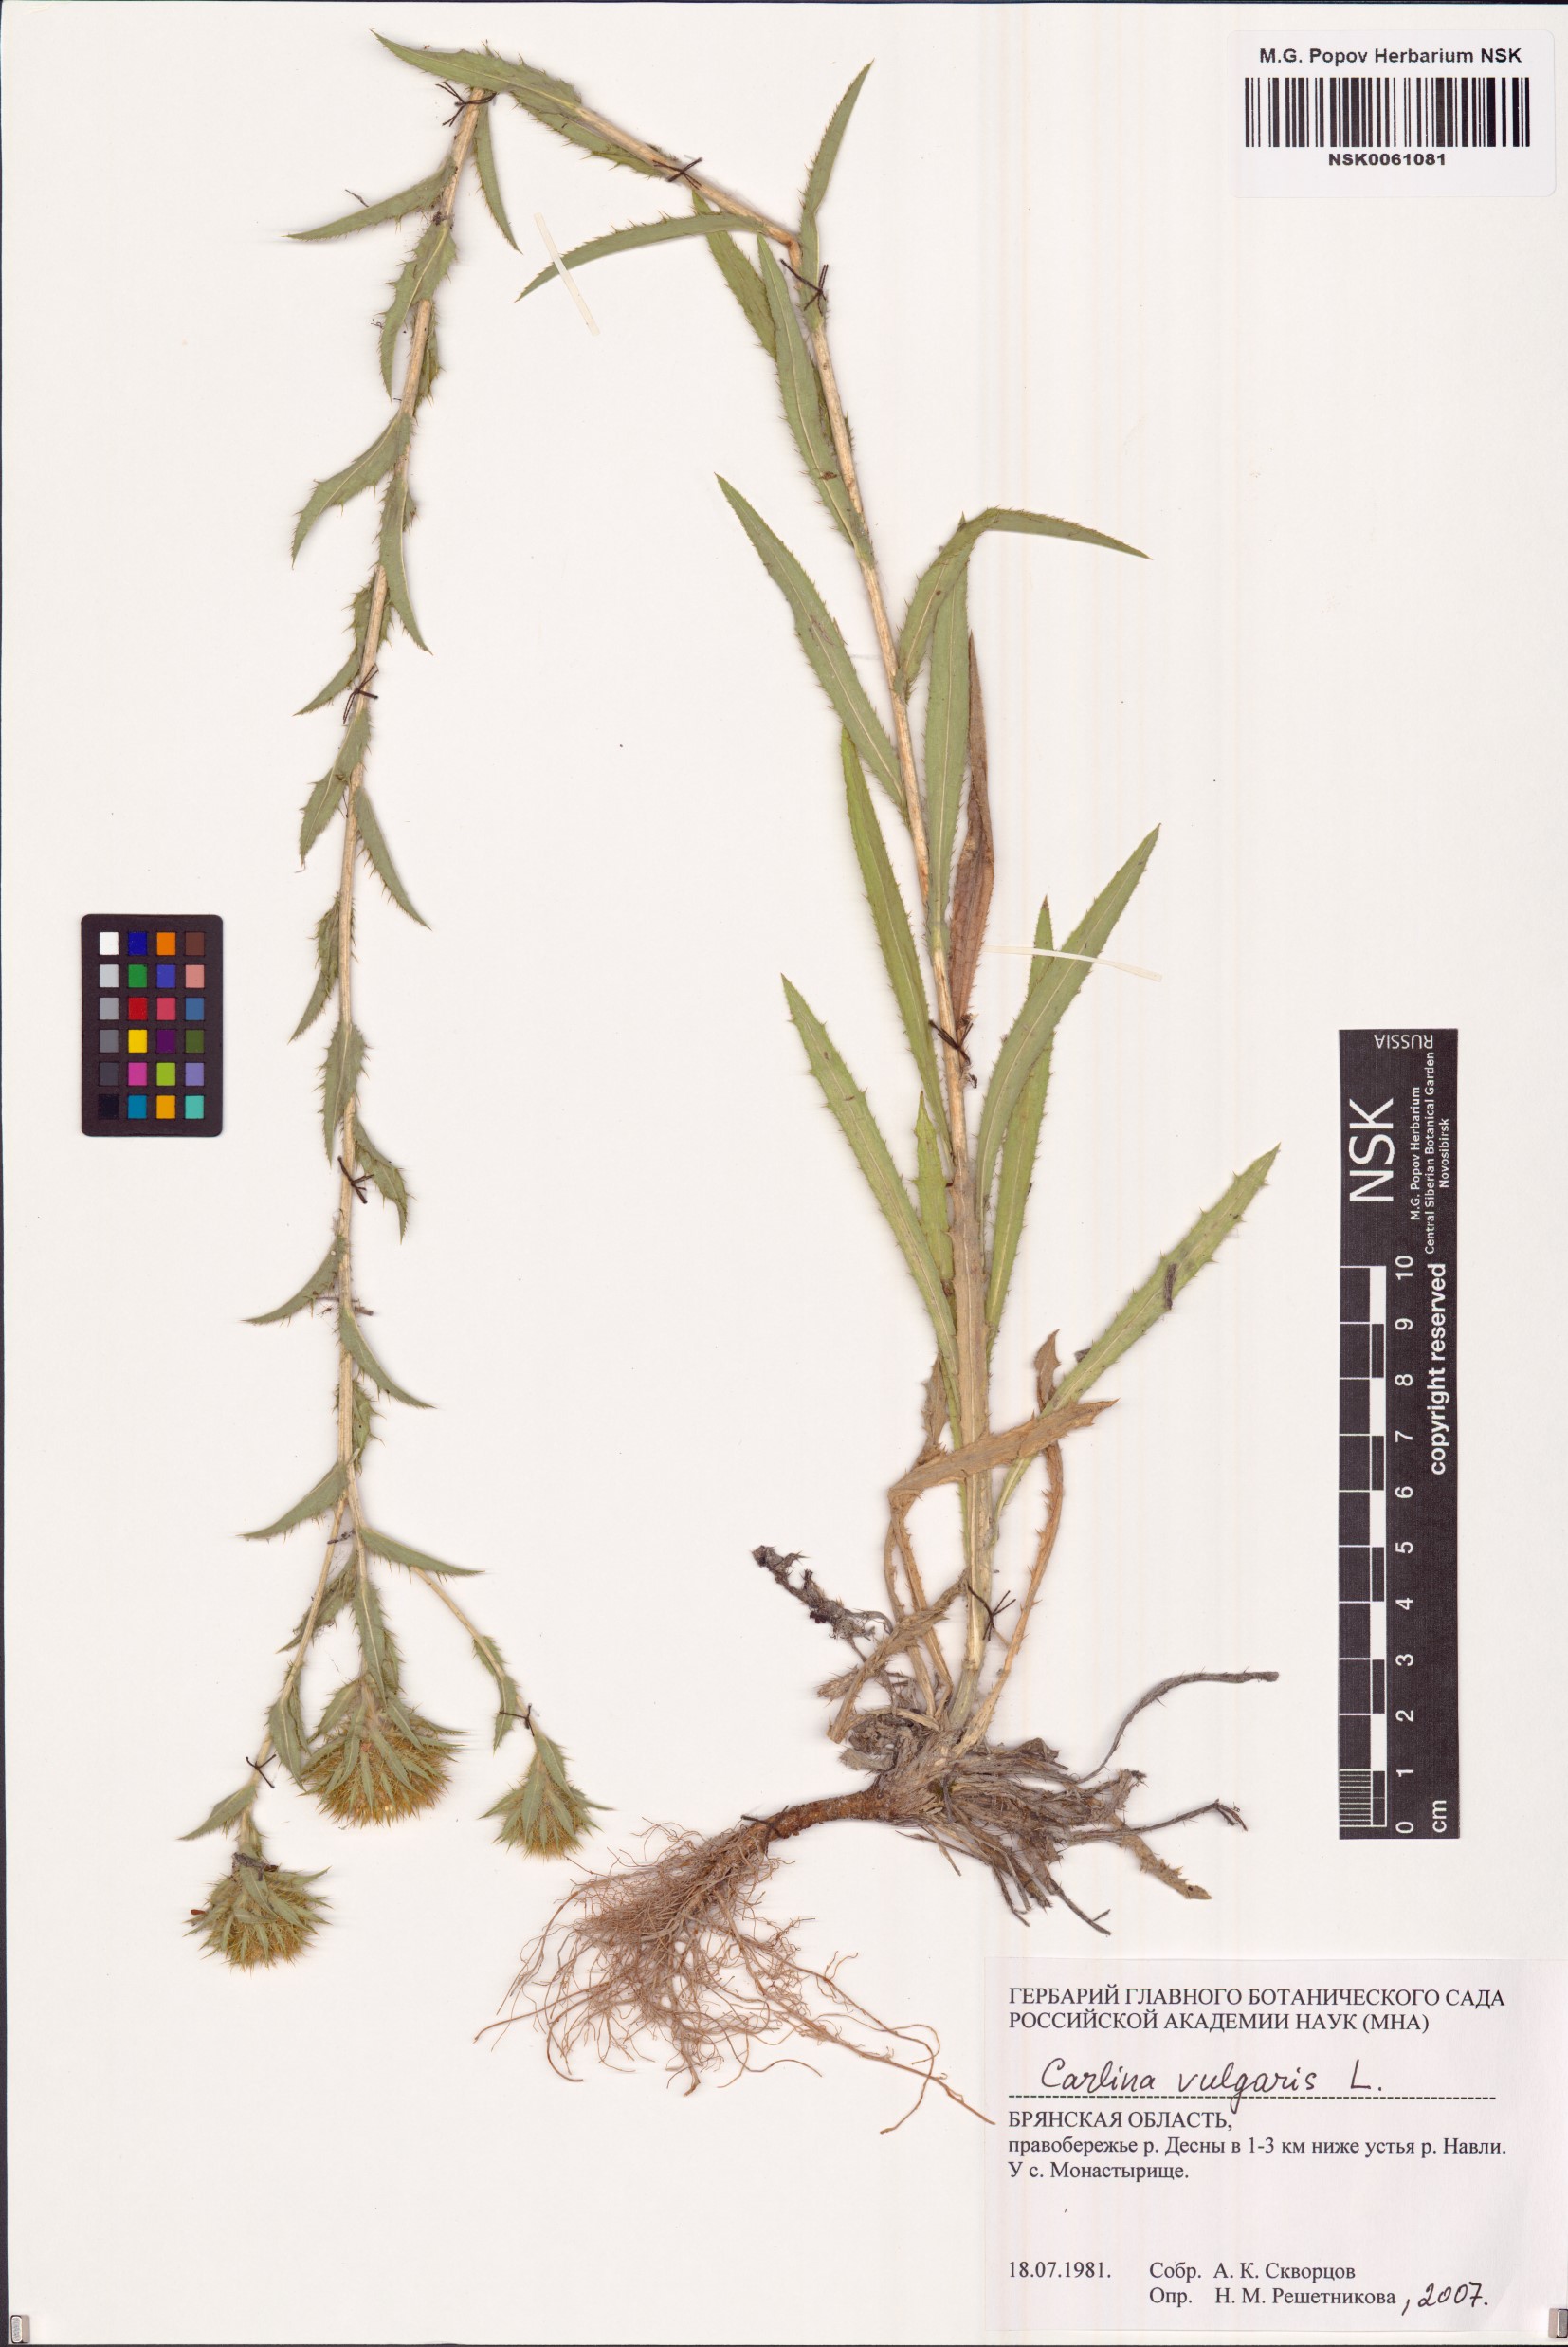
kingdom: Plantae
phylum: Tracheophyta
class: Magnoliopsida
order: Asterales
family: Asteraceae
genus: Carlina
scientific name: Carlina vulgaris
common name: Carline thistle
